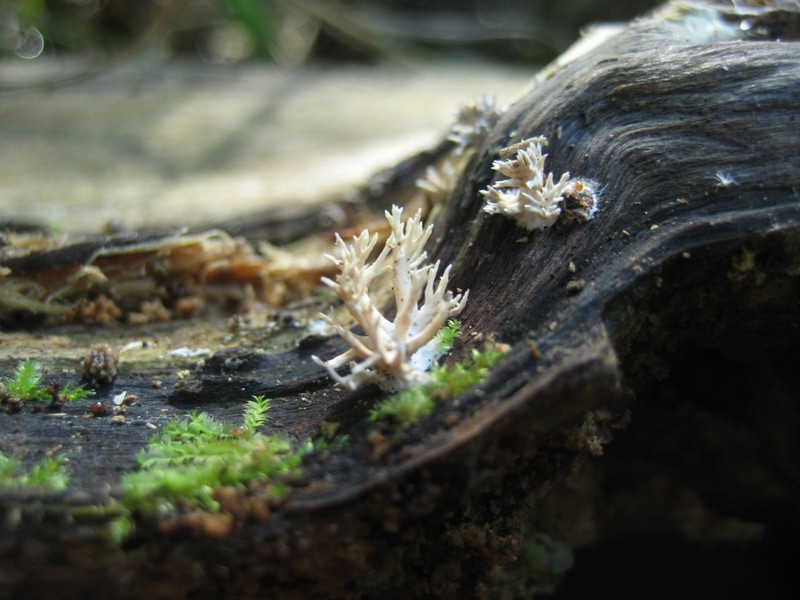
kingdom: Fungi
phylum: Basidiomycota
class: Agaricomycetes
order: Gomphales
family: Lentariaceae
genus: Lentaria
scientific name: Lentaria byssiseda
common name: kødfarvet grenkølle
